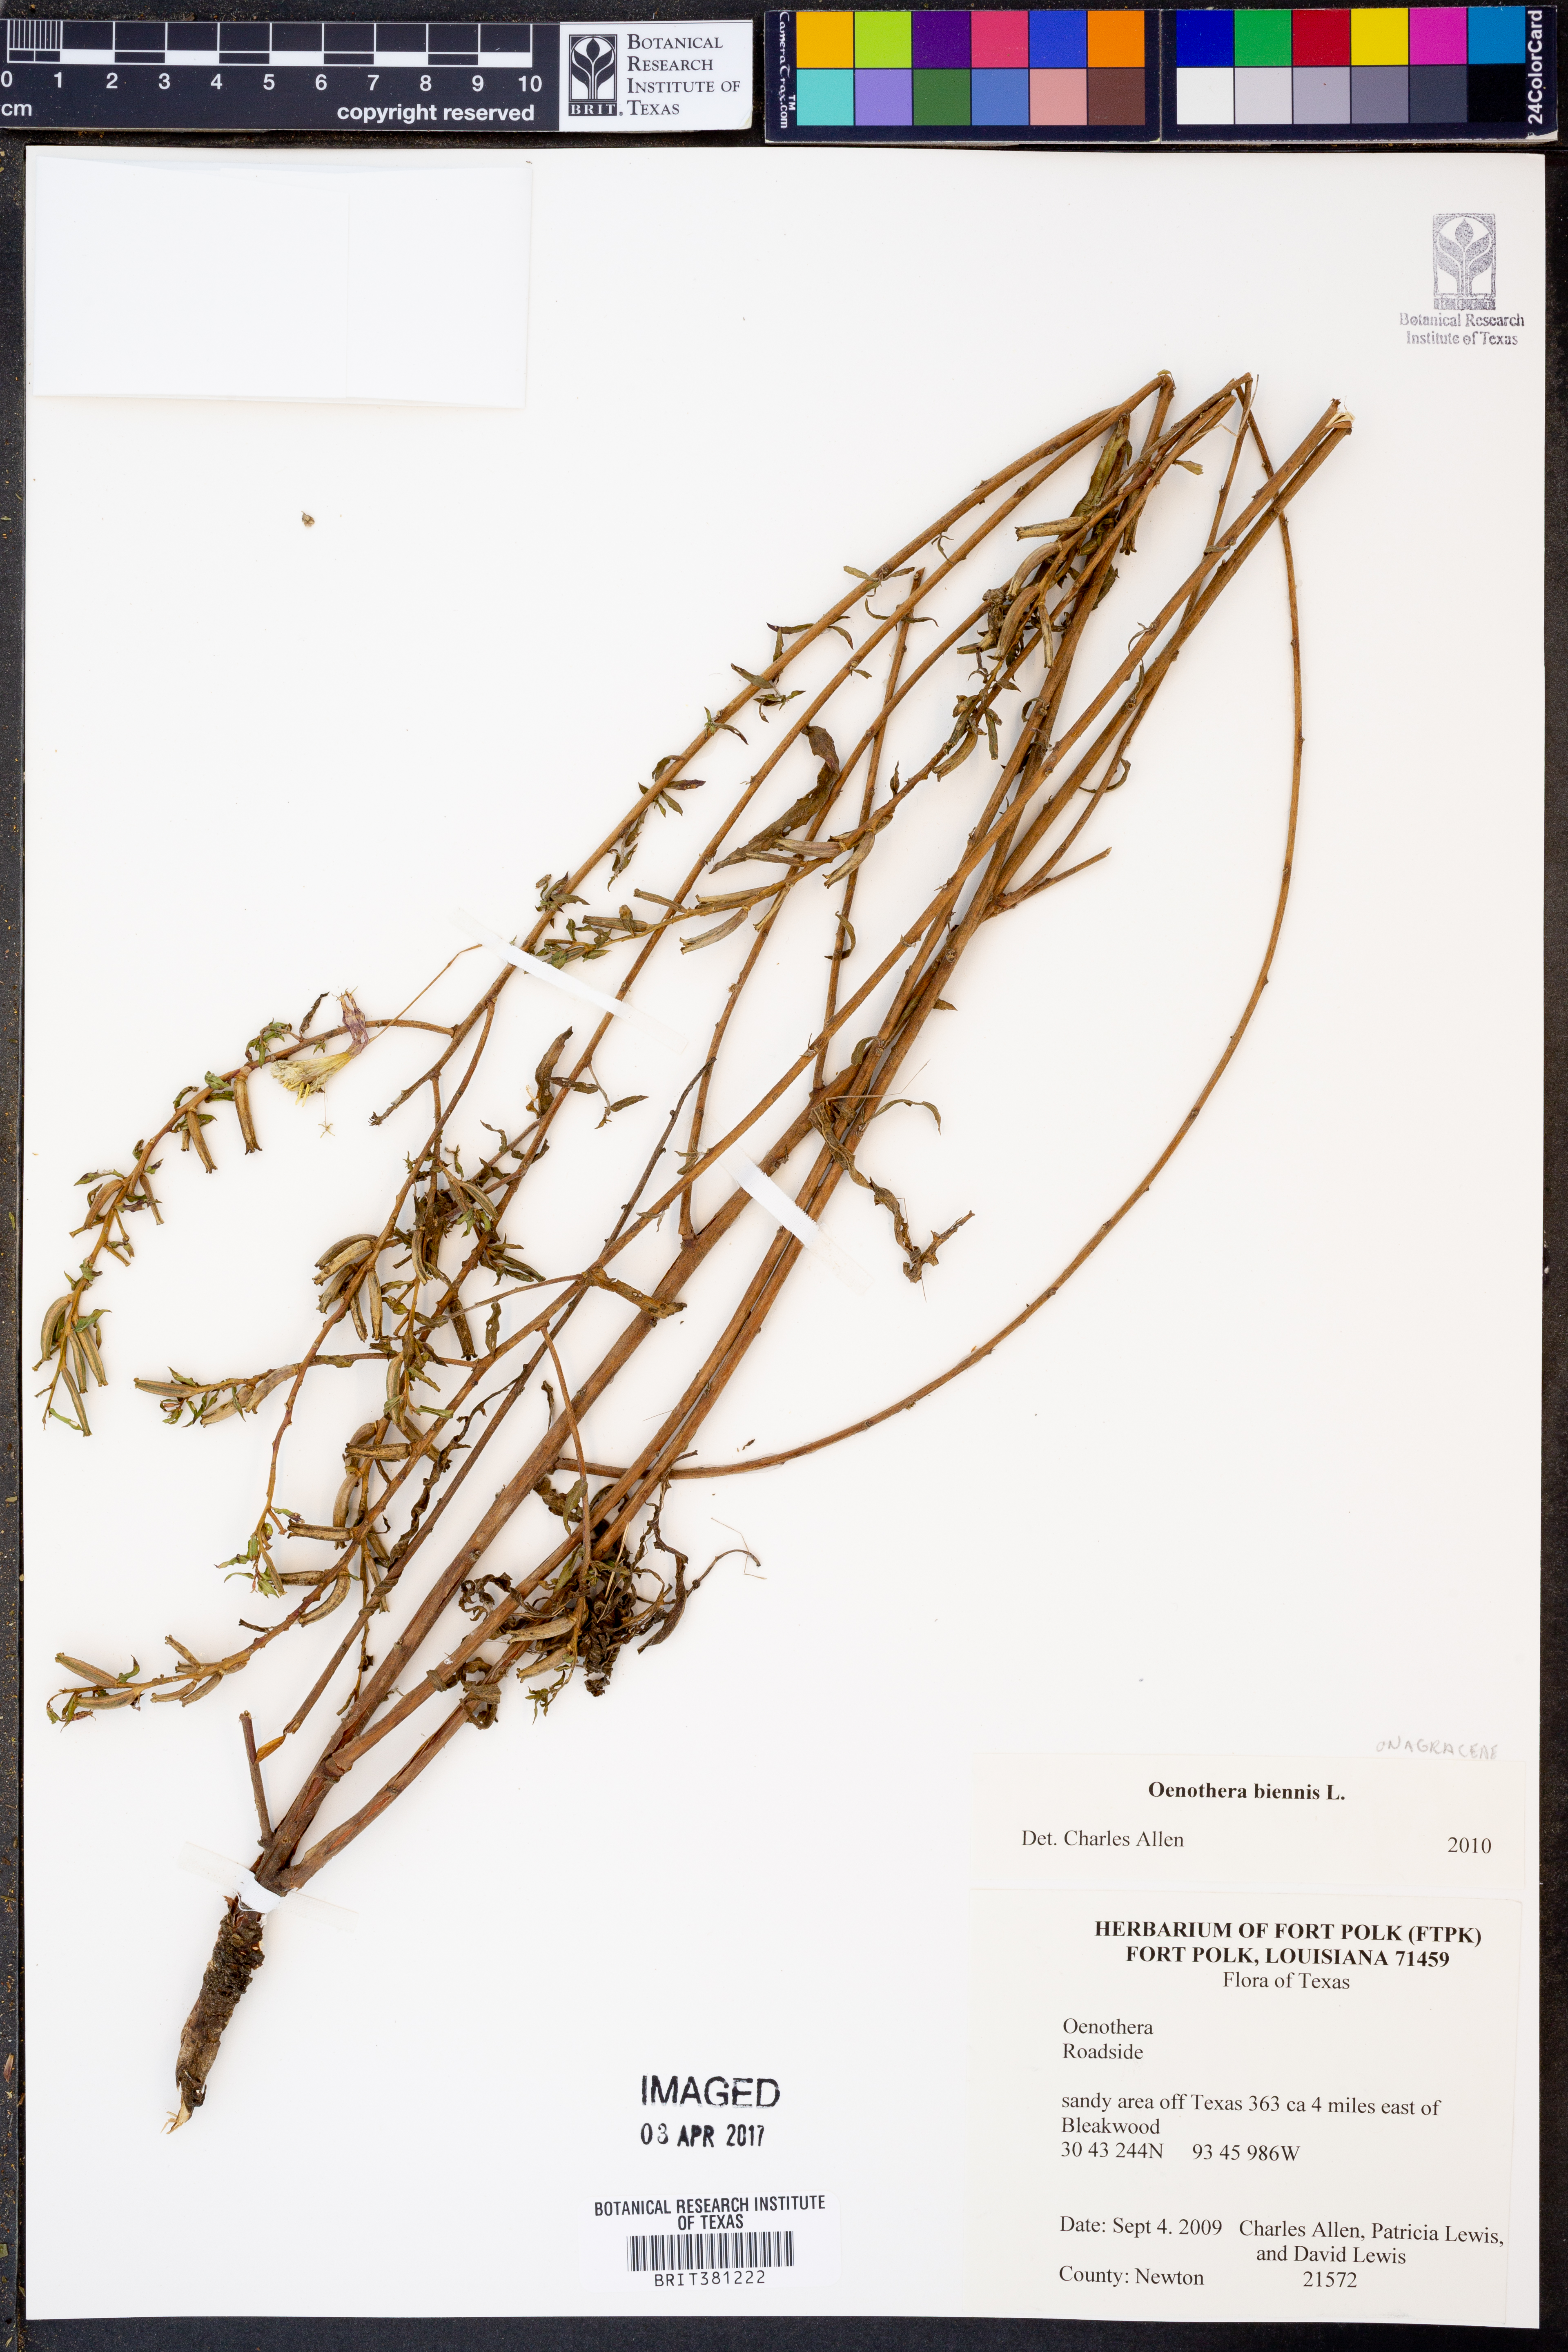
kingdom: Plantae
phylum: Tracheophyta
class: Magnoliopsida
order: Myrtales
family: Onagraceae
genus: Oenothera
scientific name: Oenothera biennis
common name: Common evening-primrose
